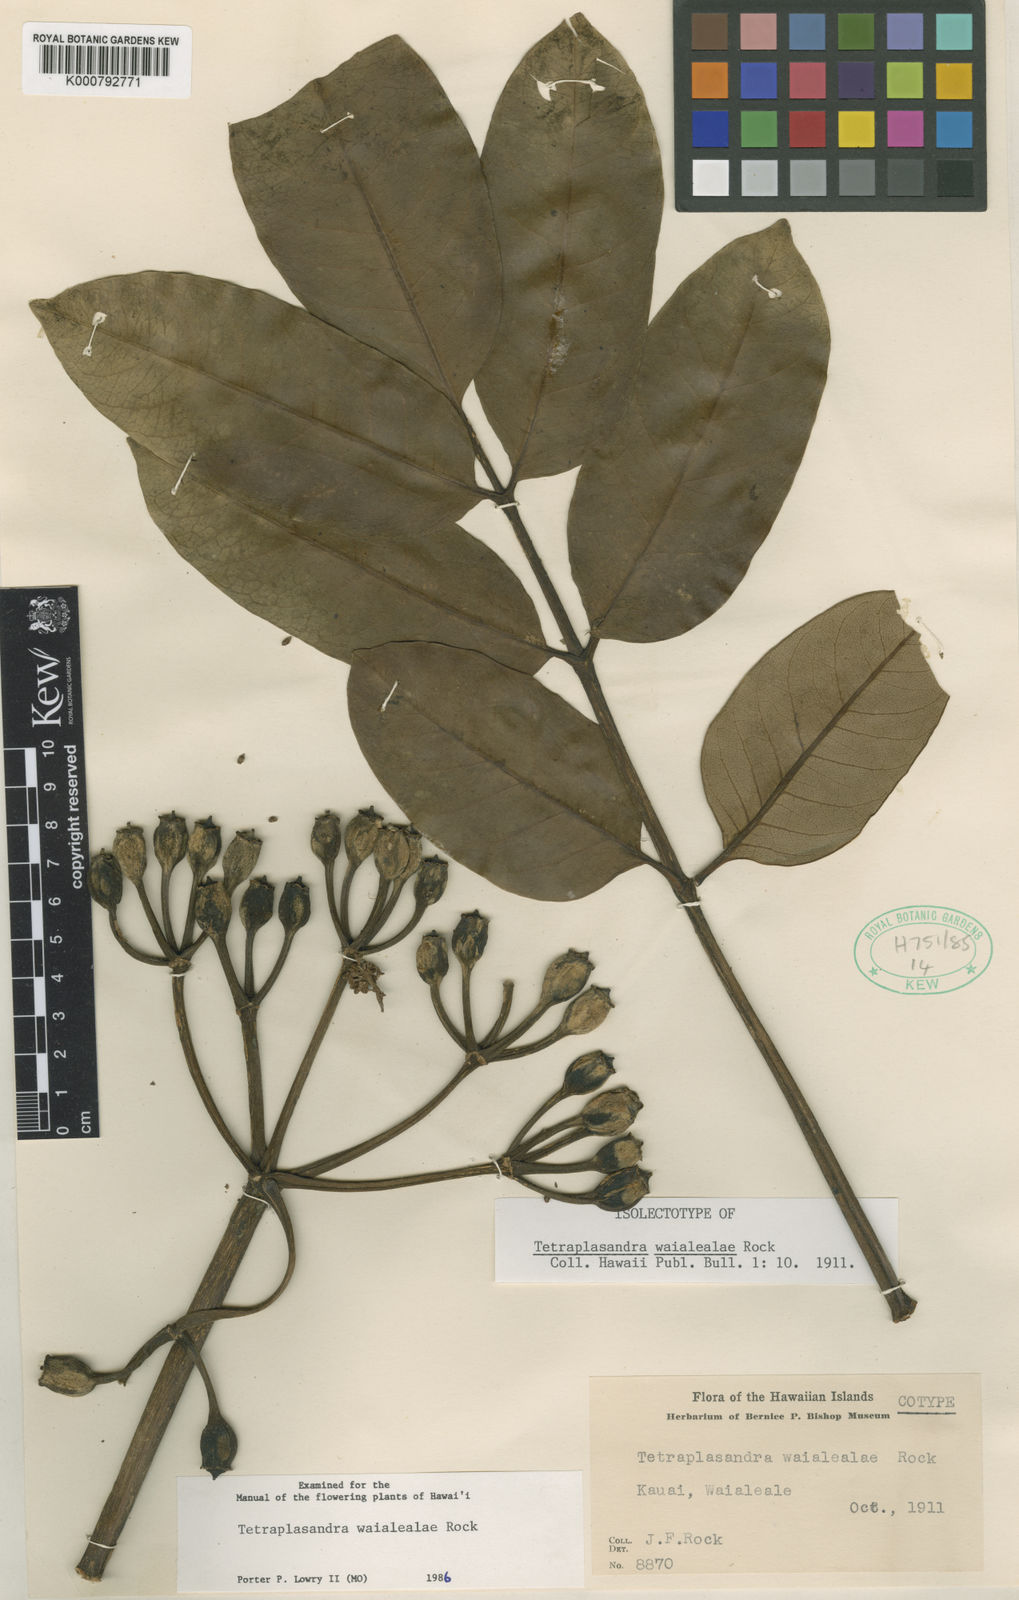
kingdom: Plantae
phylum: Tracheophyta
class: Magnoliopsida
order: Apiales
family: Araliaceae
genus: Polyscias
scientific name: Polyscias waialealae
